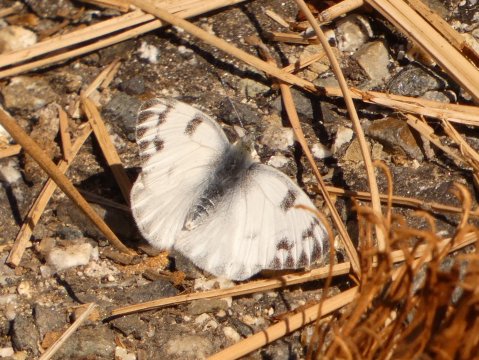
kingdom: Animalia
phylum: Arthropoda
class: Insecta
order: Lepidoptera
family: Pieridae
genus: Pontia
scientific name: Pontia protodice
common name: Checkered White
